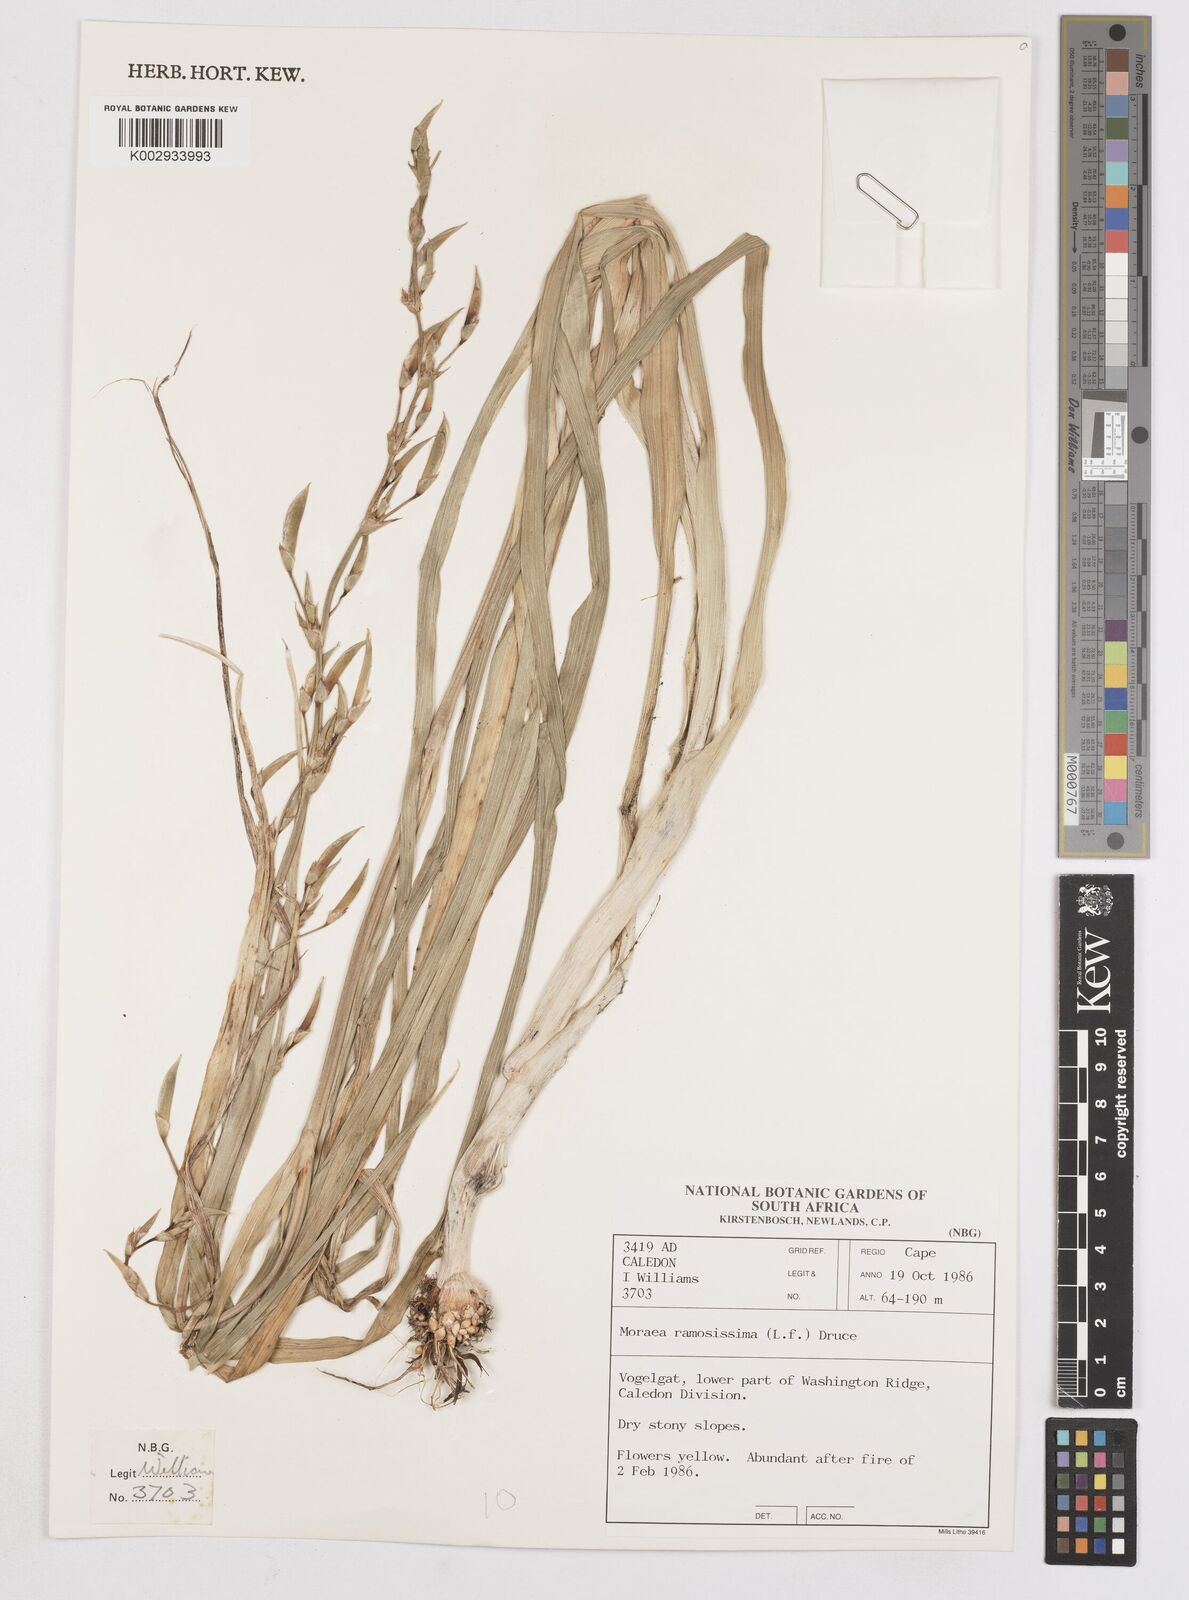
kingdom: Plantae
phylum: Tracheophyta
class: Liliopsida
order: Asparagales
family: Iridaceae
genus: Moraea
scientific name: Moraea ramosissima
